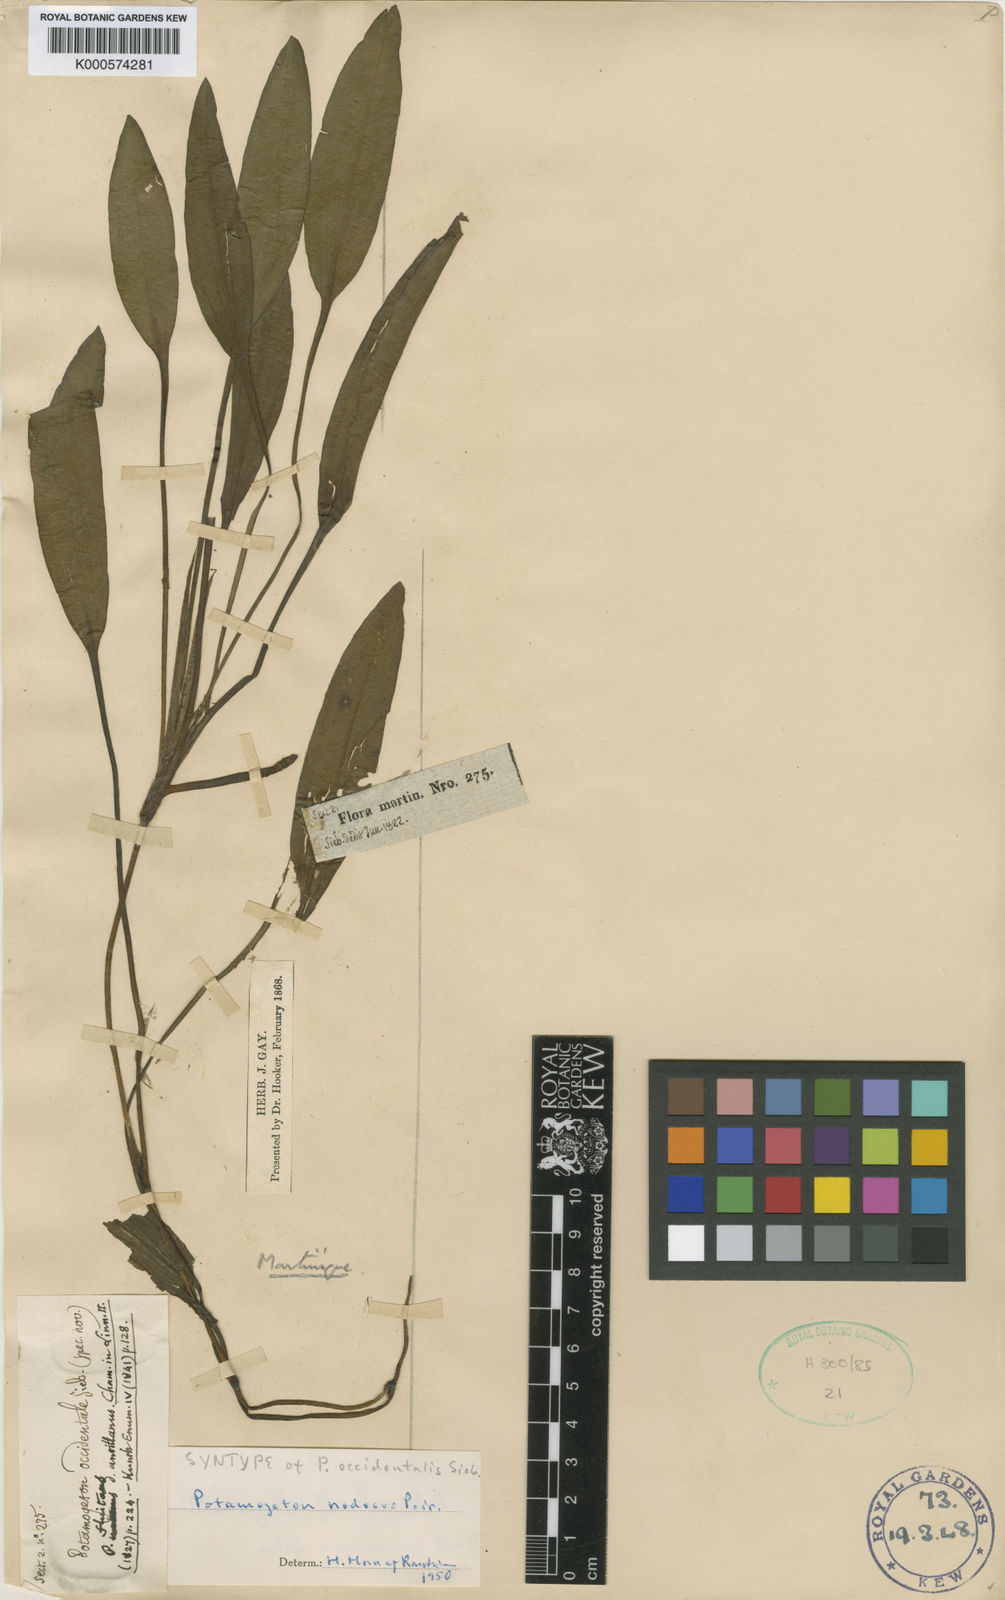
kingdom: Plantae
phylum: Tracheophyta
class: Liliopsida
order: Alismatales
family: Potamogetonaceae
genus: Potamogeton
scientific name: Potamogeton nodosus
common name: Loddon pondweed
